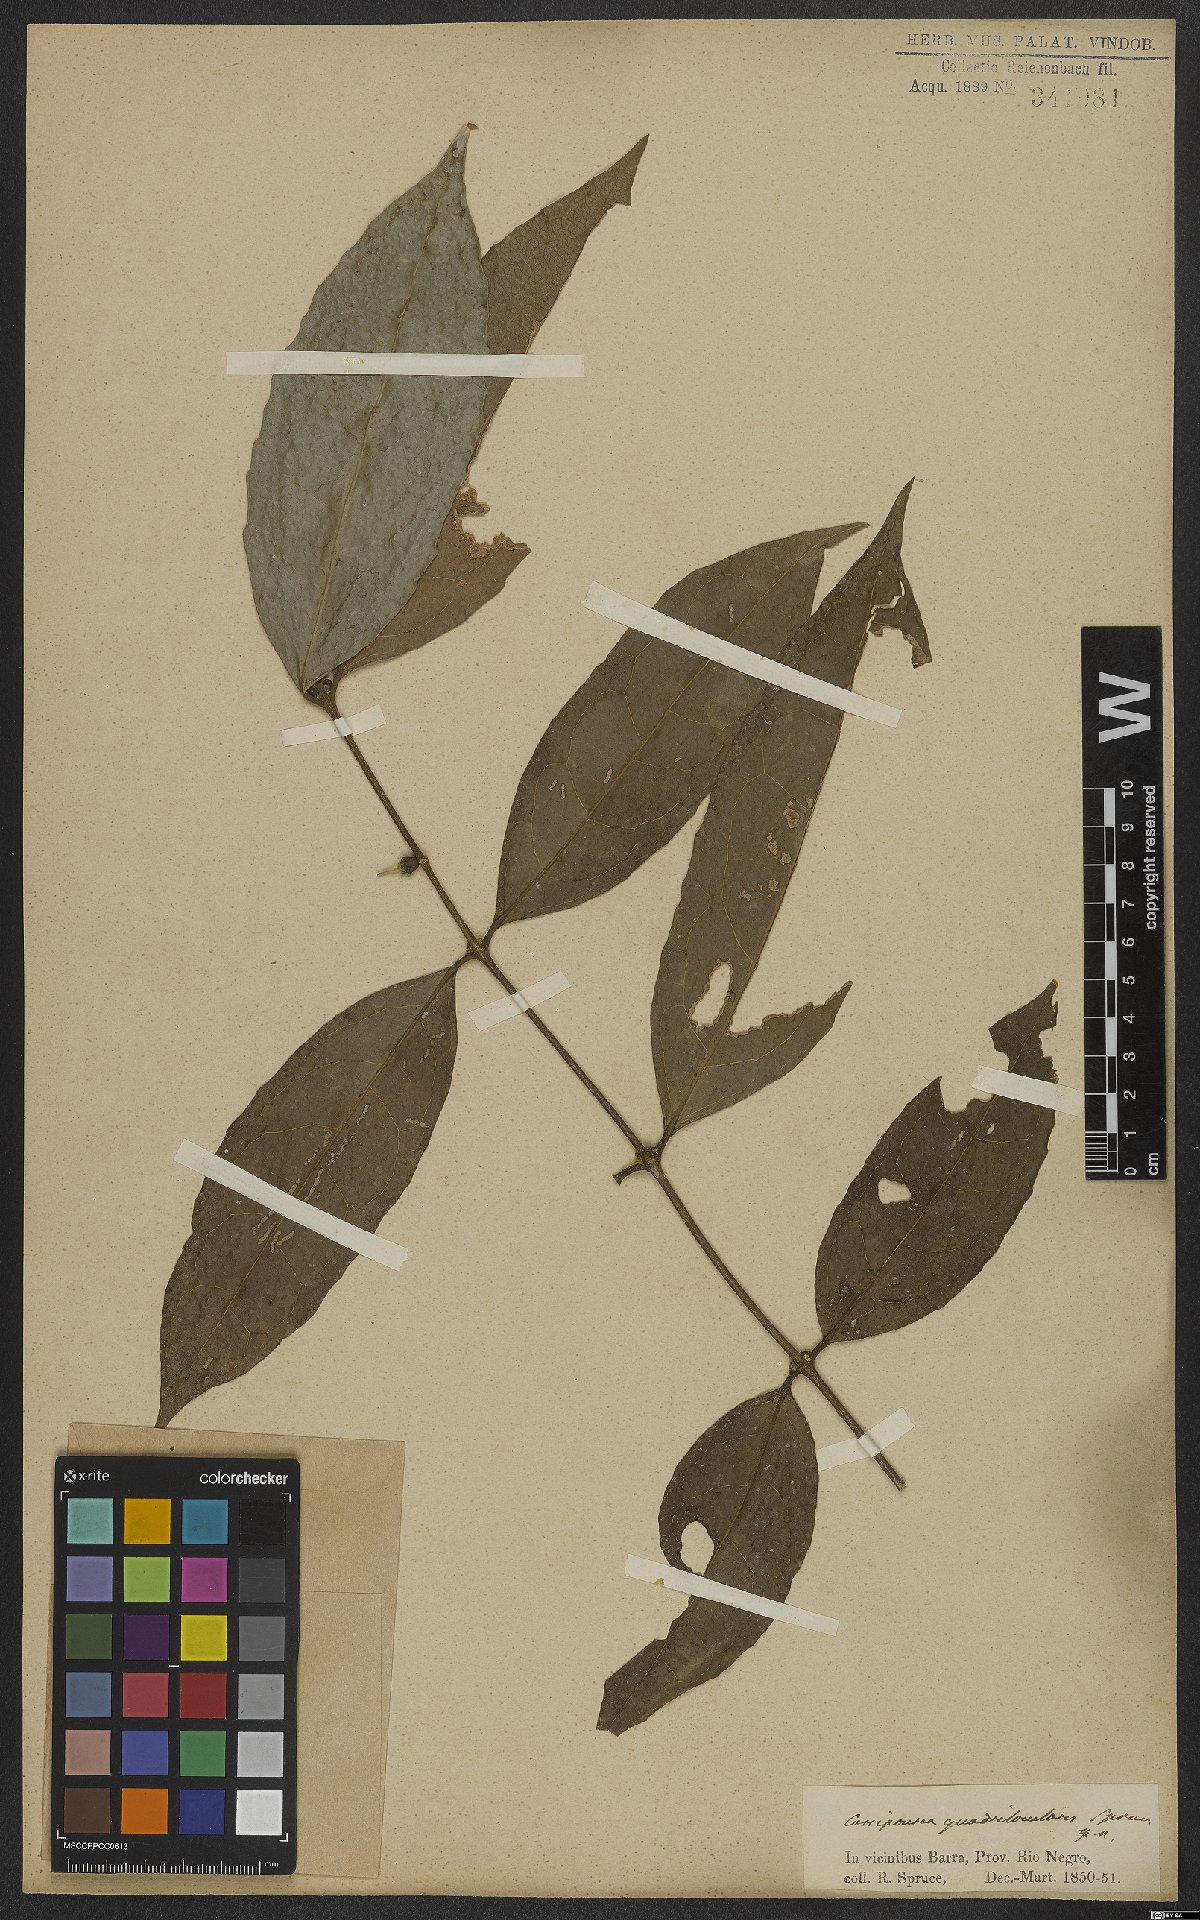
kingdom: Plantae
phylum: Tracheophyta
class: Magnoliopsida
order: Malpighiales
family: Rhizophoraceae
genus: Cassipourea
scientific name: Cassipourea guianensis
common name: Bastard waterwood
